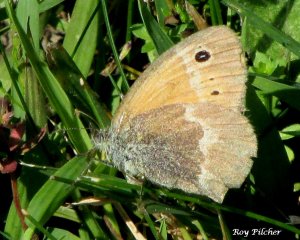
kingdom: Animalia
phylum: Arthropoda
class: Insecta
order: Lepidoptera
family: Nymphalidae
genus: Coenonympha
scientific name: Coenonympha tullia
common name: Large Heath
